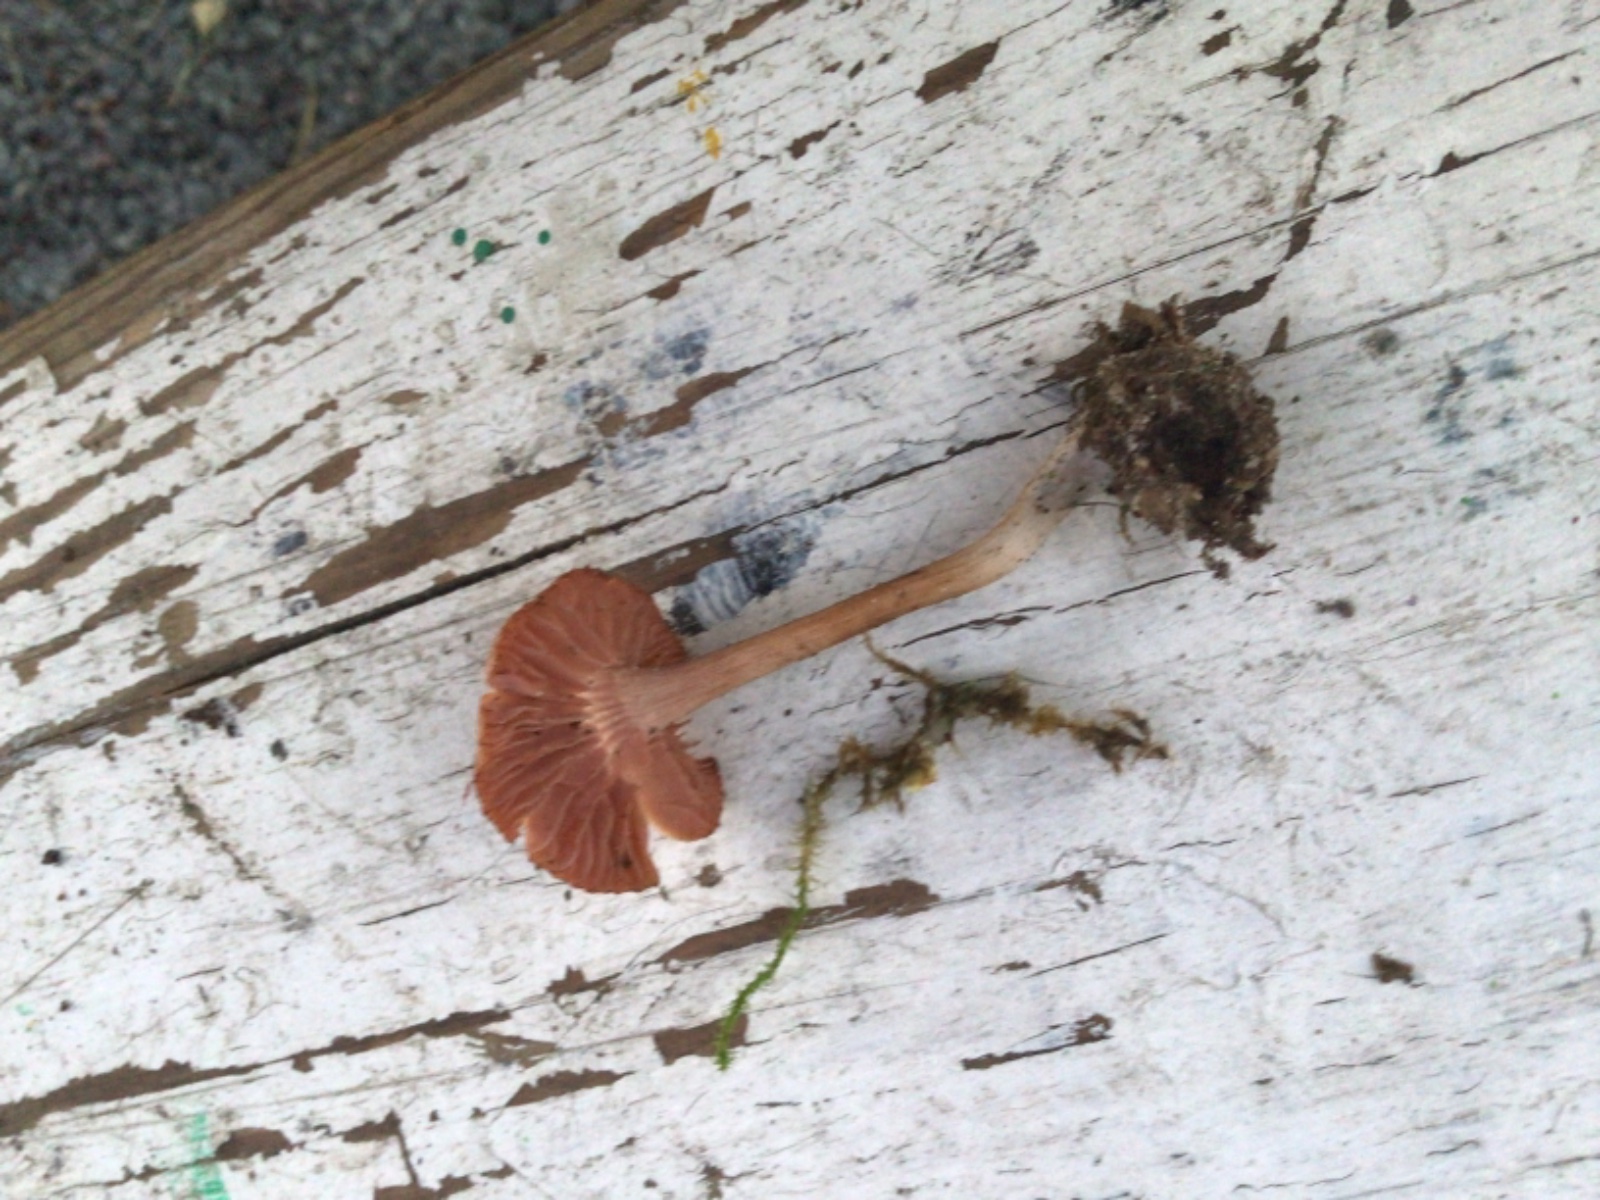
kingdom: Fungi
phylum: Basidiomycota
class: Agaricomycetes
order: Agaricales
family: Hydnangiaceae
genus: Laccaria
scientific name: Laccaria laccata
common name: rød ametysthat
